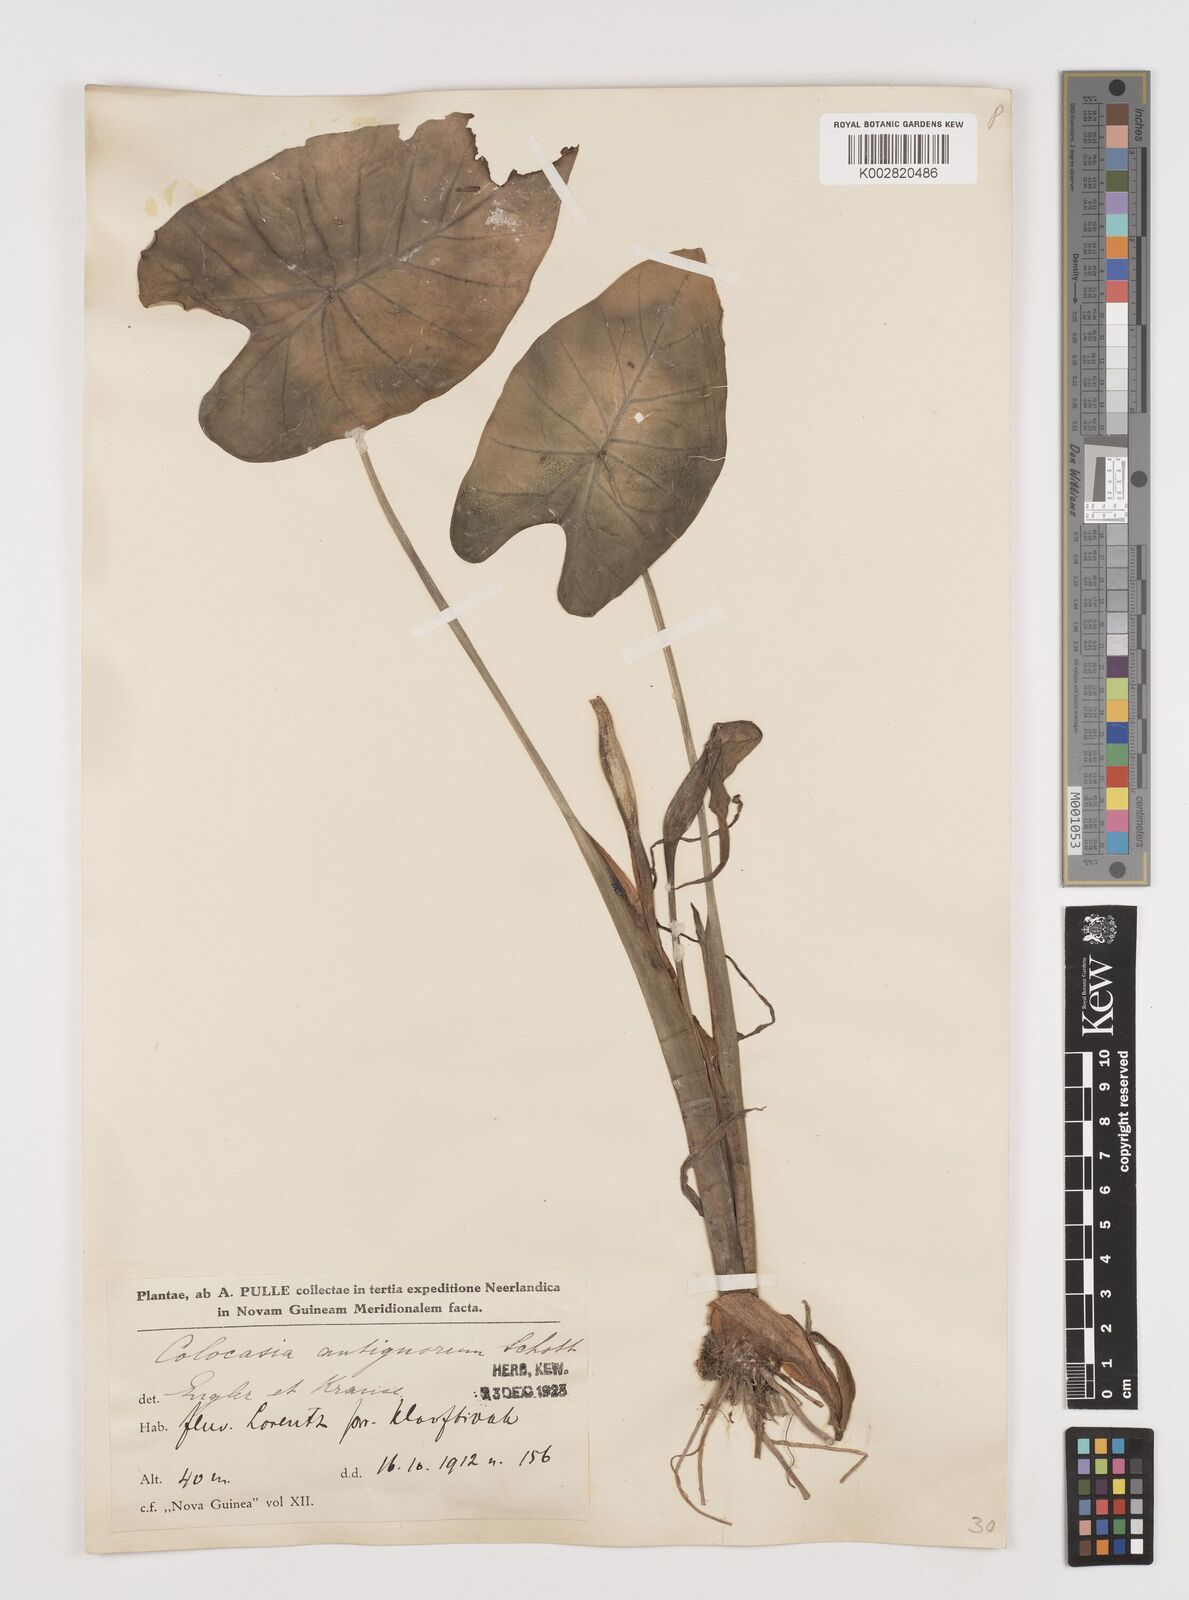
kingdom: Plantae
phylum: Tracheophyta
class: Liliopsida
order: Alismatales
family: Araceae
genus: Colocasia
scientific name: Colocasia esculenta
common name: Taro
